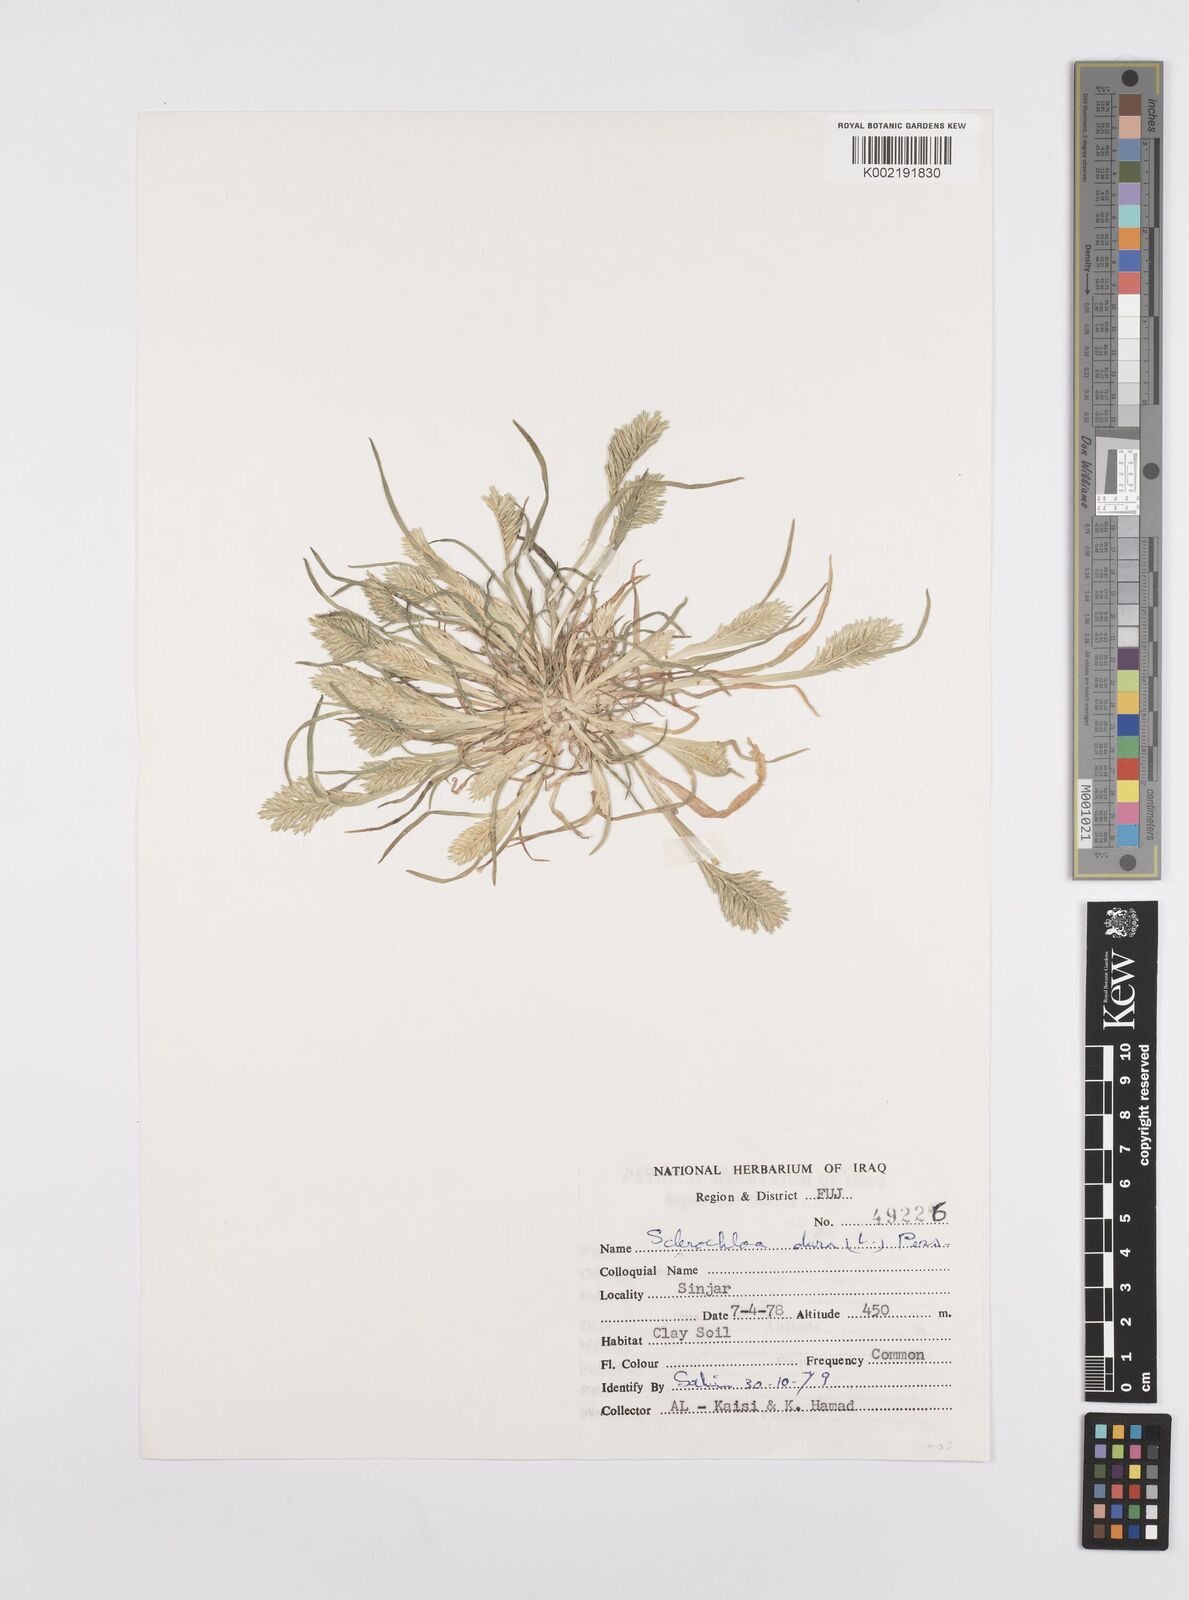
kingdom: Plantae
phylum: Tracheophyta
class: Liliopsida
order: Poales
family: Poaceae
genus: Sclerochloa
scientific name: Sclerochloa dura
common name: Common hardgrass
